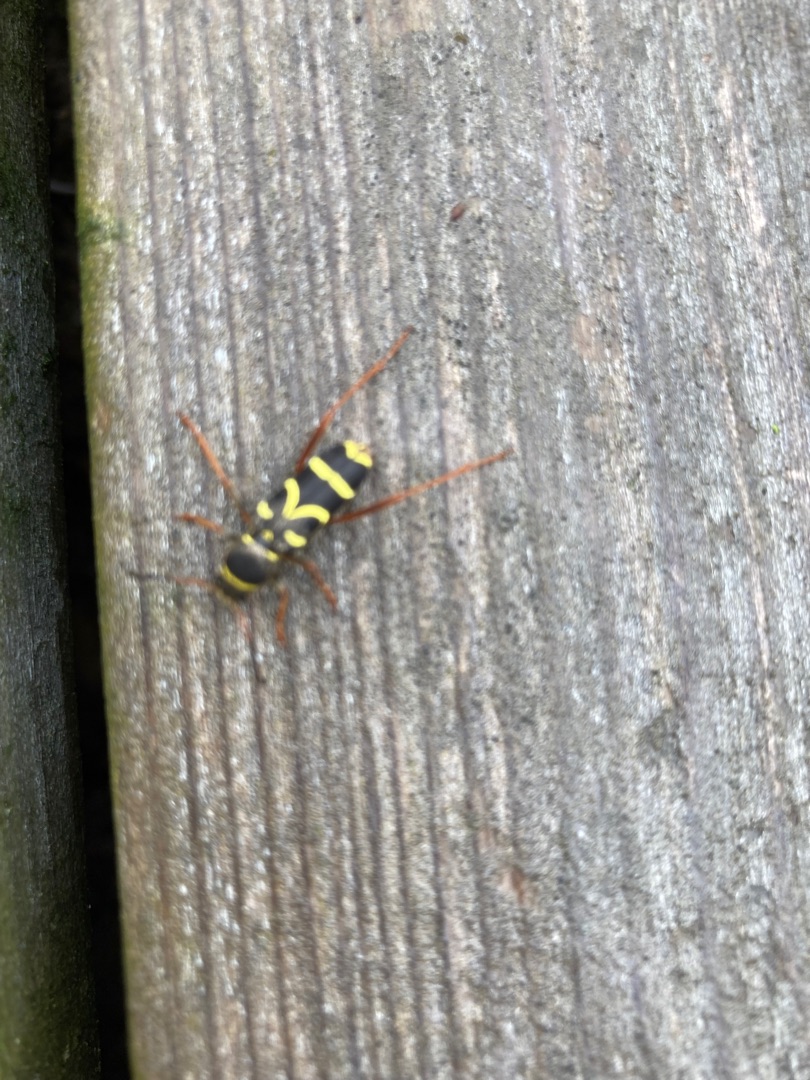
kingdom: Animalia
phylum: Arthropoda
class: Insecta
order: Coleoptera
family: Cerambycidae
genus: Clytus
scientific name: Clytus arietis
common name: Lille hvepsebuk
